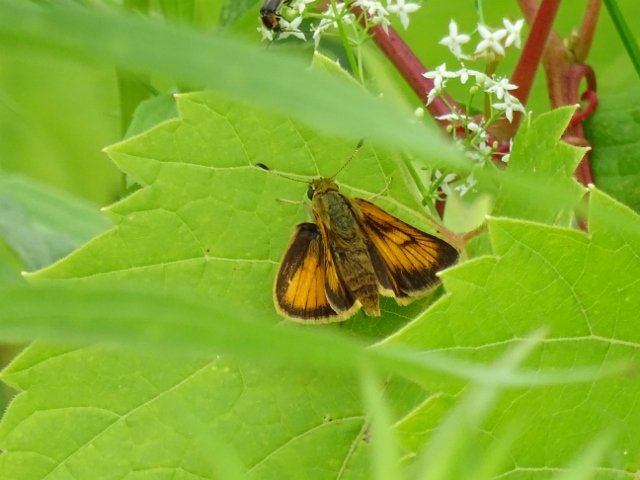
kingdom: Animalia
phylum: Arthropoda
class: Insecta
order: Lepidoptera
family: Hesperiidae
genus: Atrytone
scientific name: Atrytone delaware
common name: Delaware Skipper
